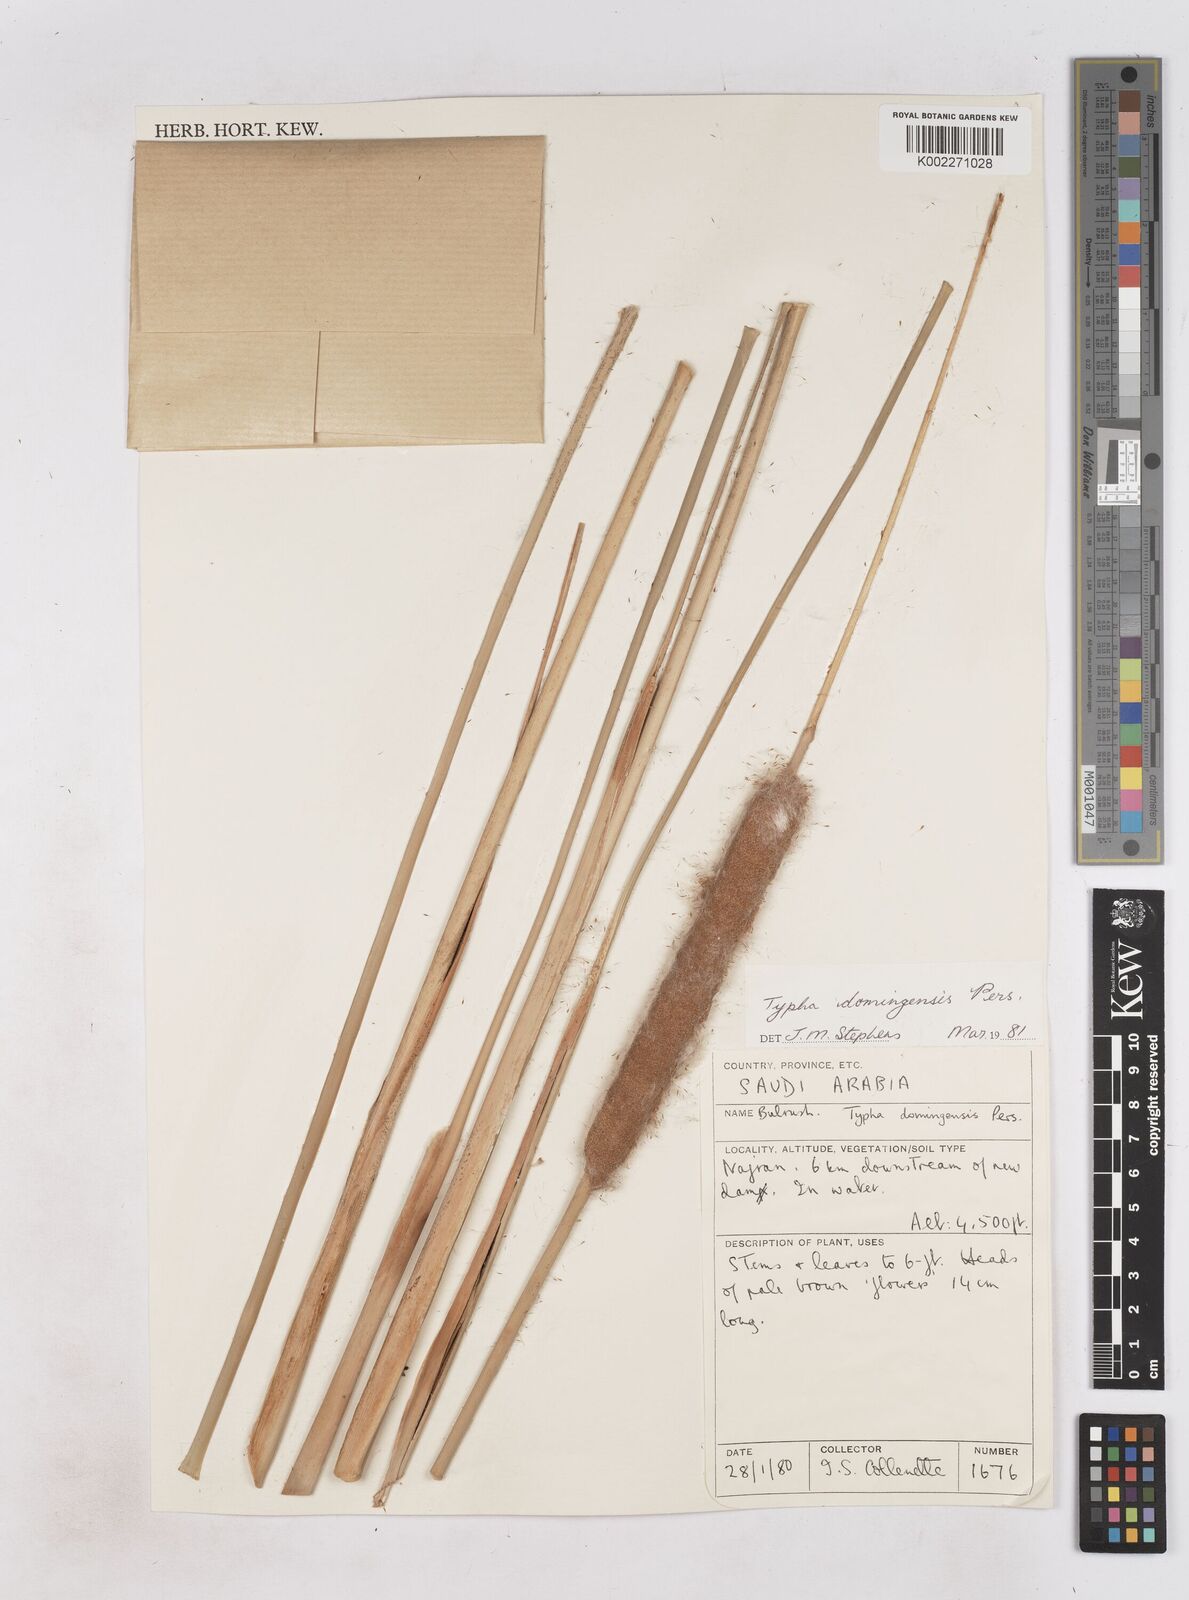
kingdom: Plantae
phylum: Tracheophyta
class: Liliopsida
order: Poales
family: Typhaceae
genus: Typha
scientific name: Typha domingensis
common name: Southern cattail
